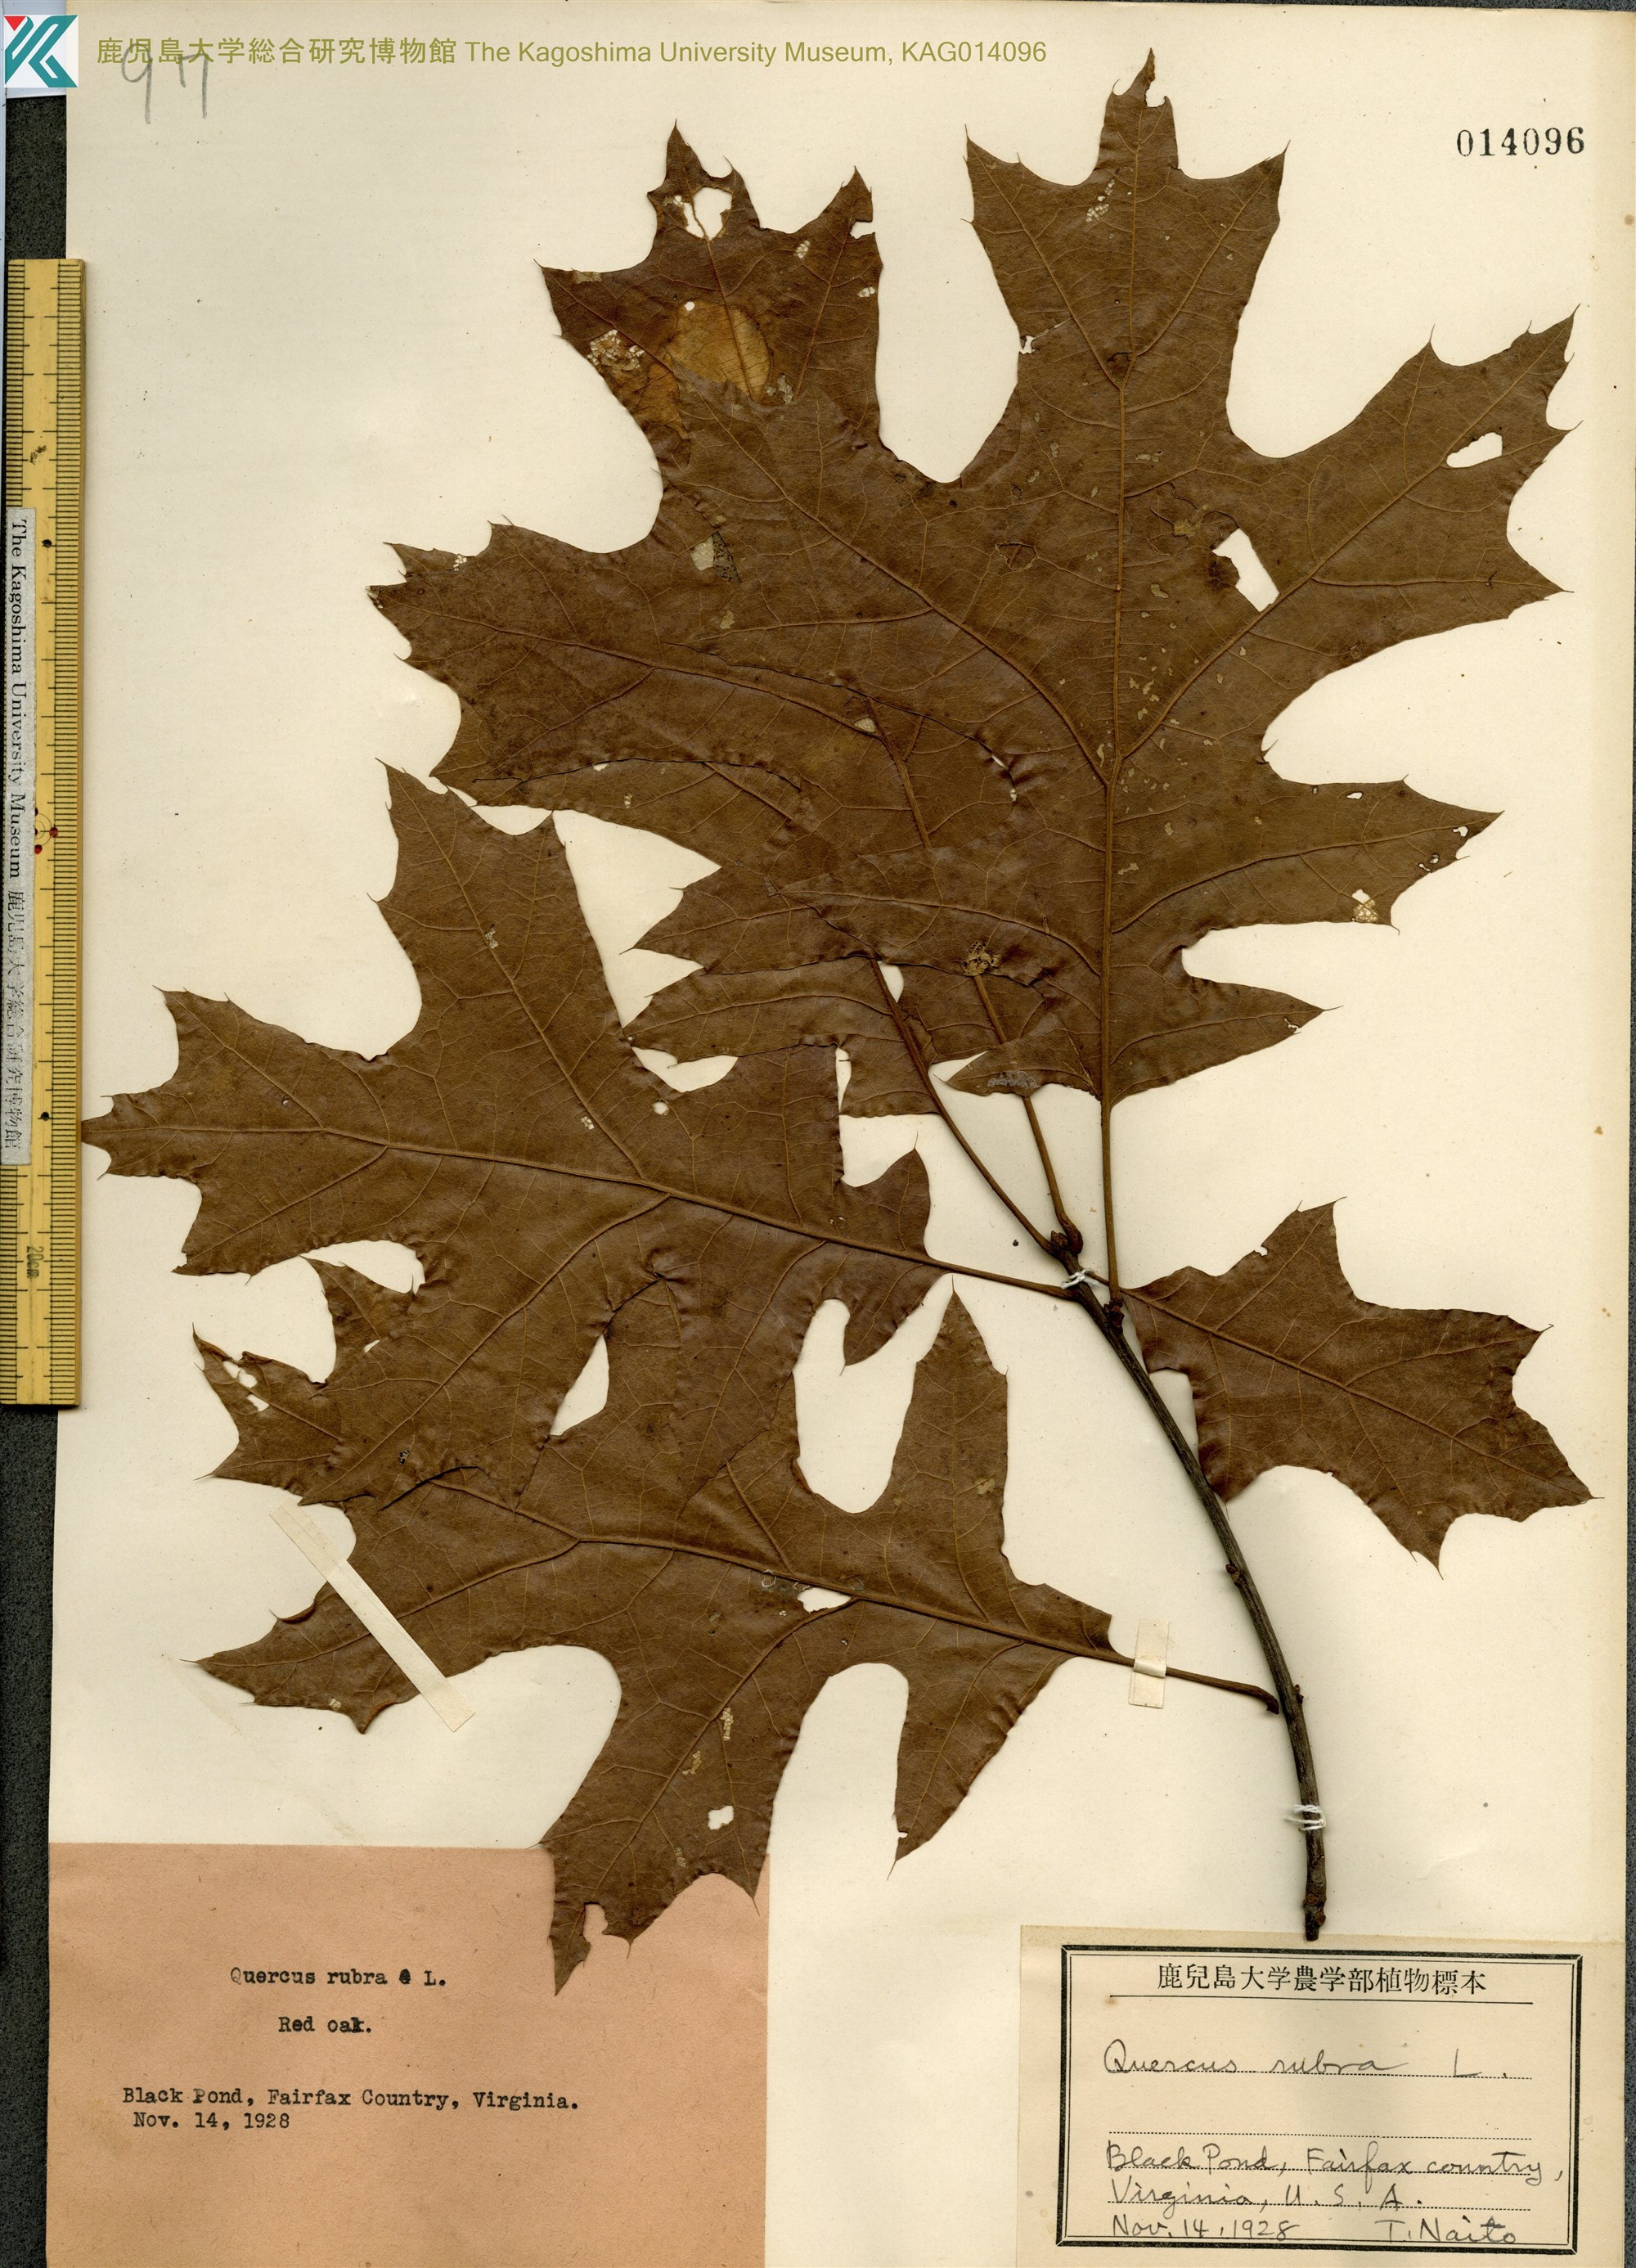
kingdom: Plantae
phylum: Tracheophyta
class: Magnoliopsida
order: Fagales
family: Fagaceae
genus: Quercus
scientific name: Quercus palustris
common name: Pin oak
